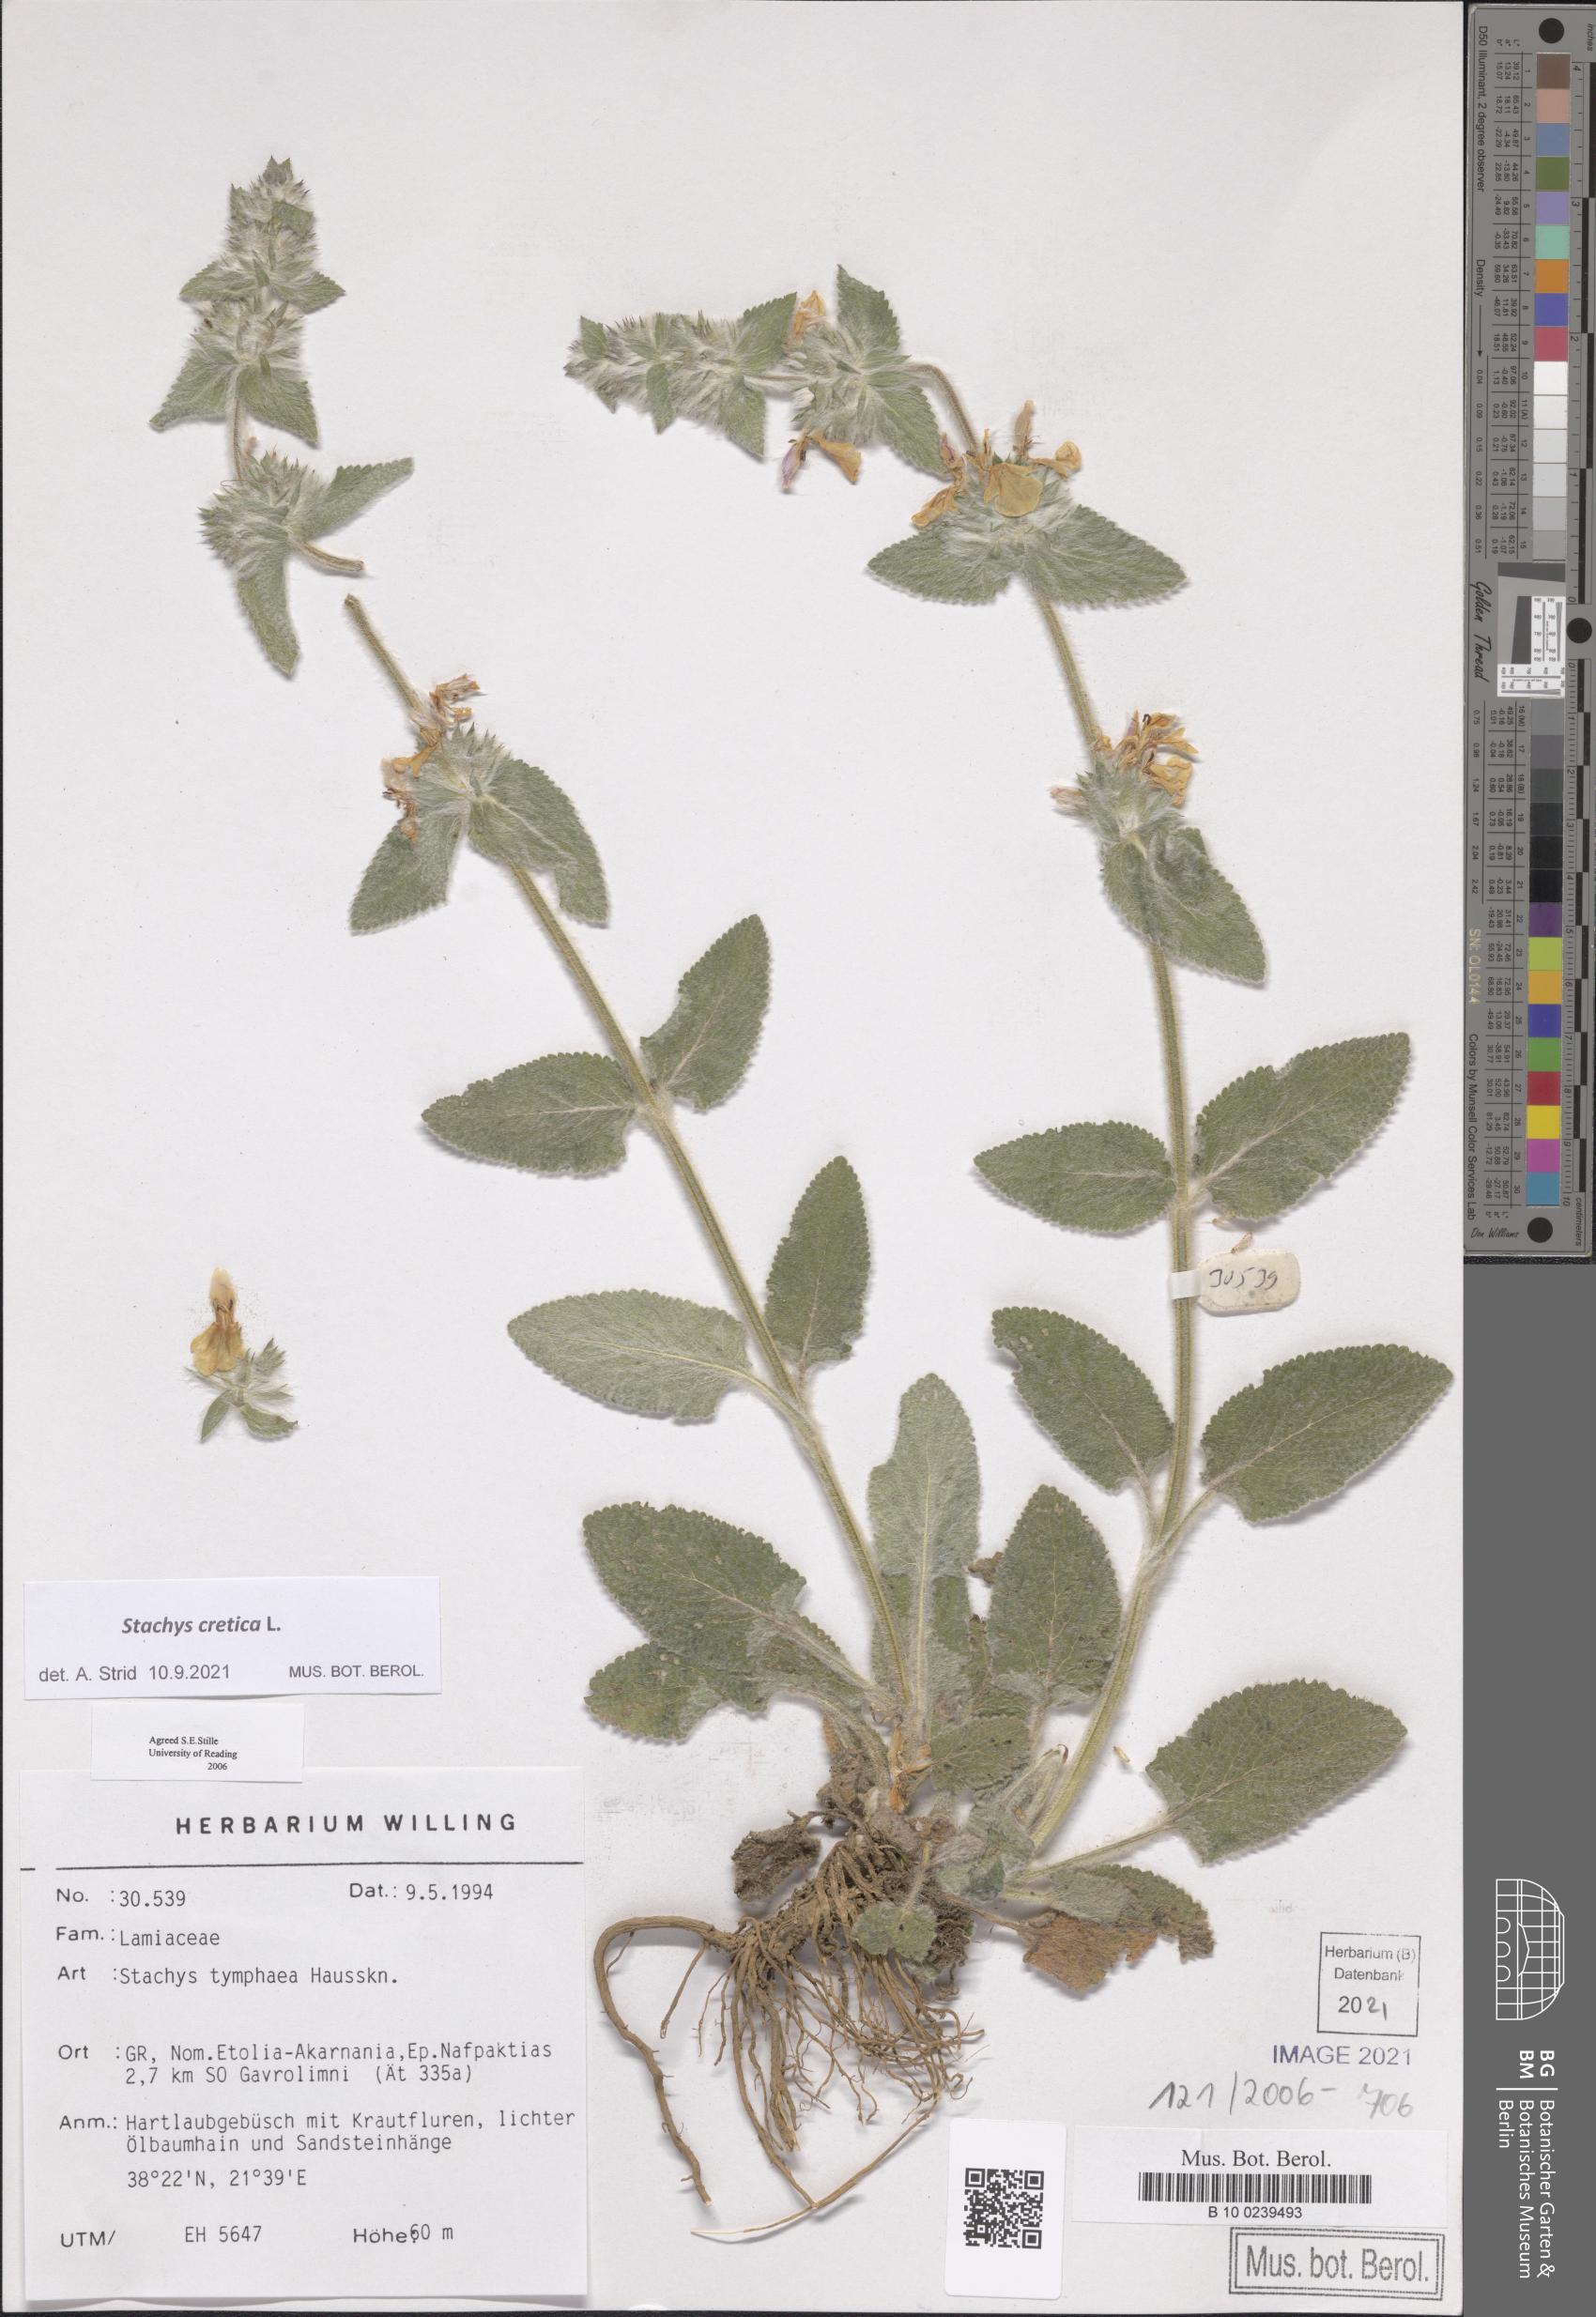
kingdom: Plantae
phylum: Tracheophyta
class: Magnoliopsida
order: Lamiales
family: Lamiaceae
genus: Stachys
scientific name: Stachys cretica
